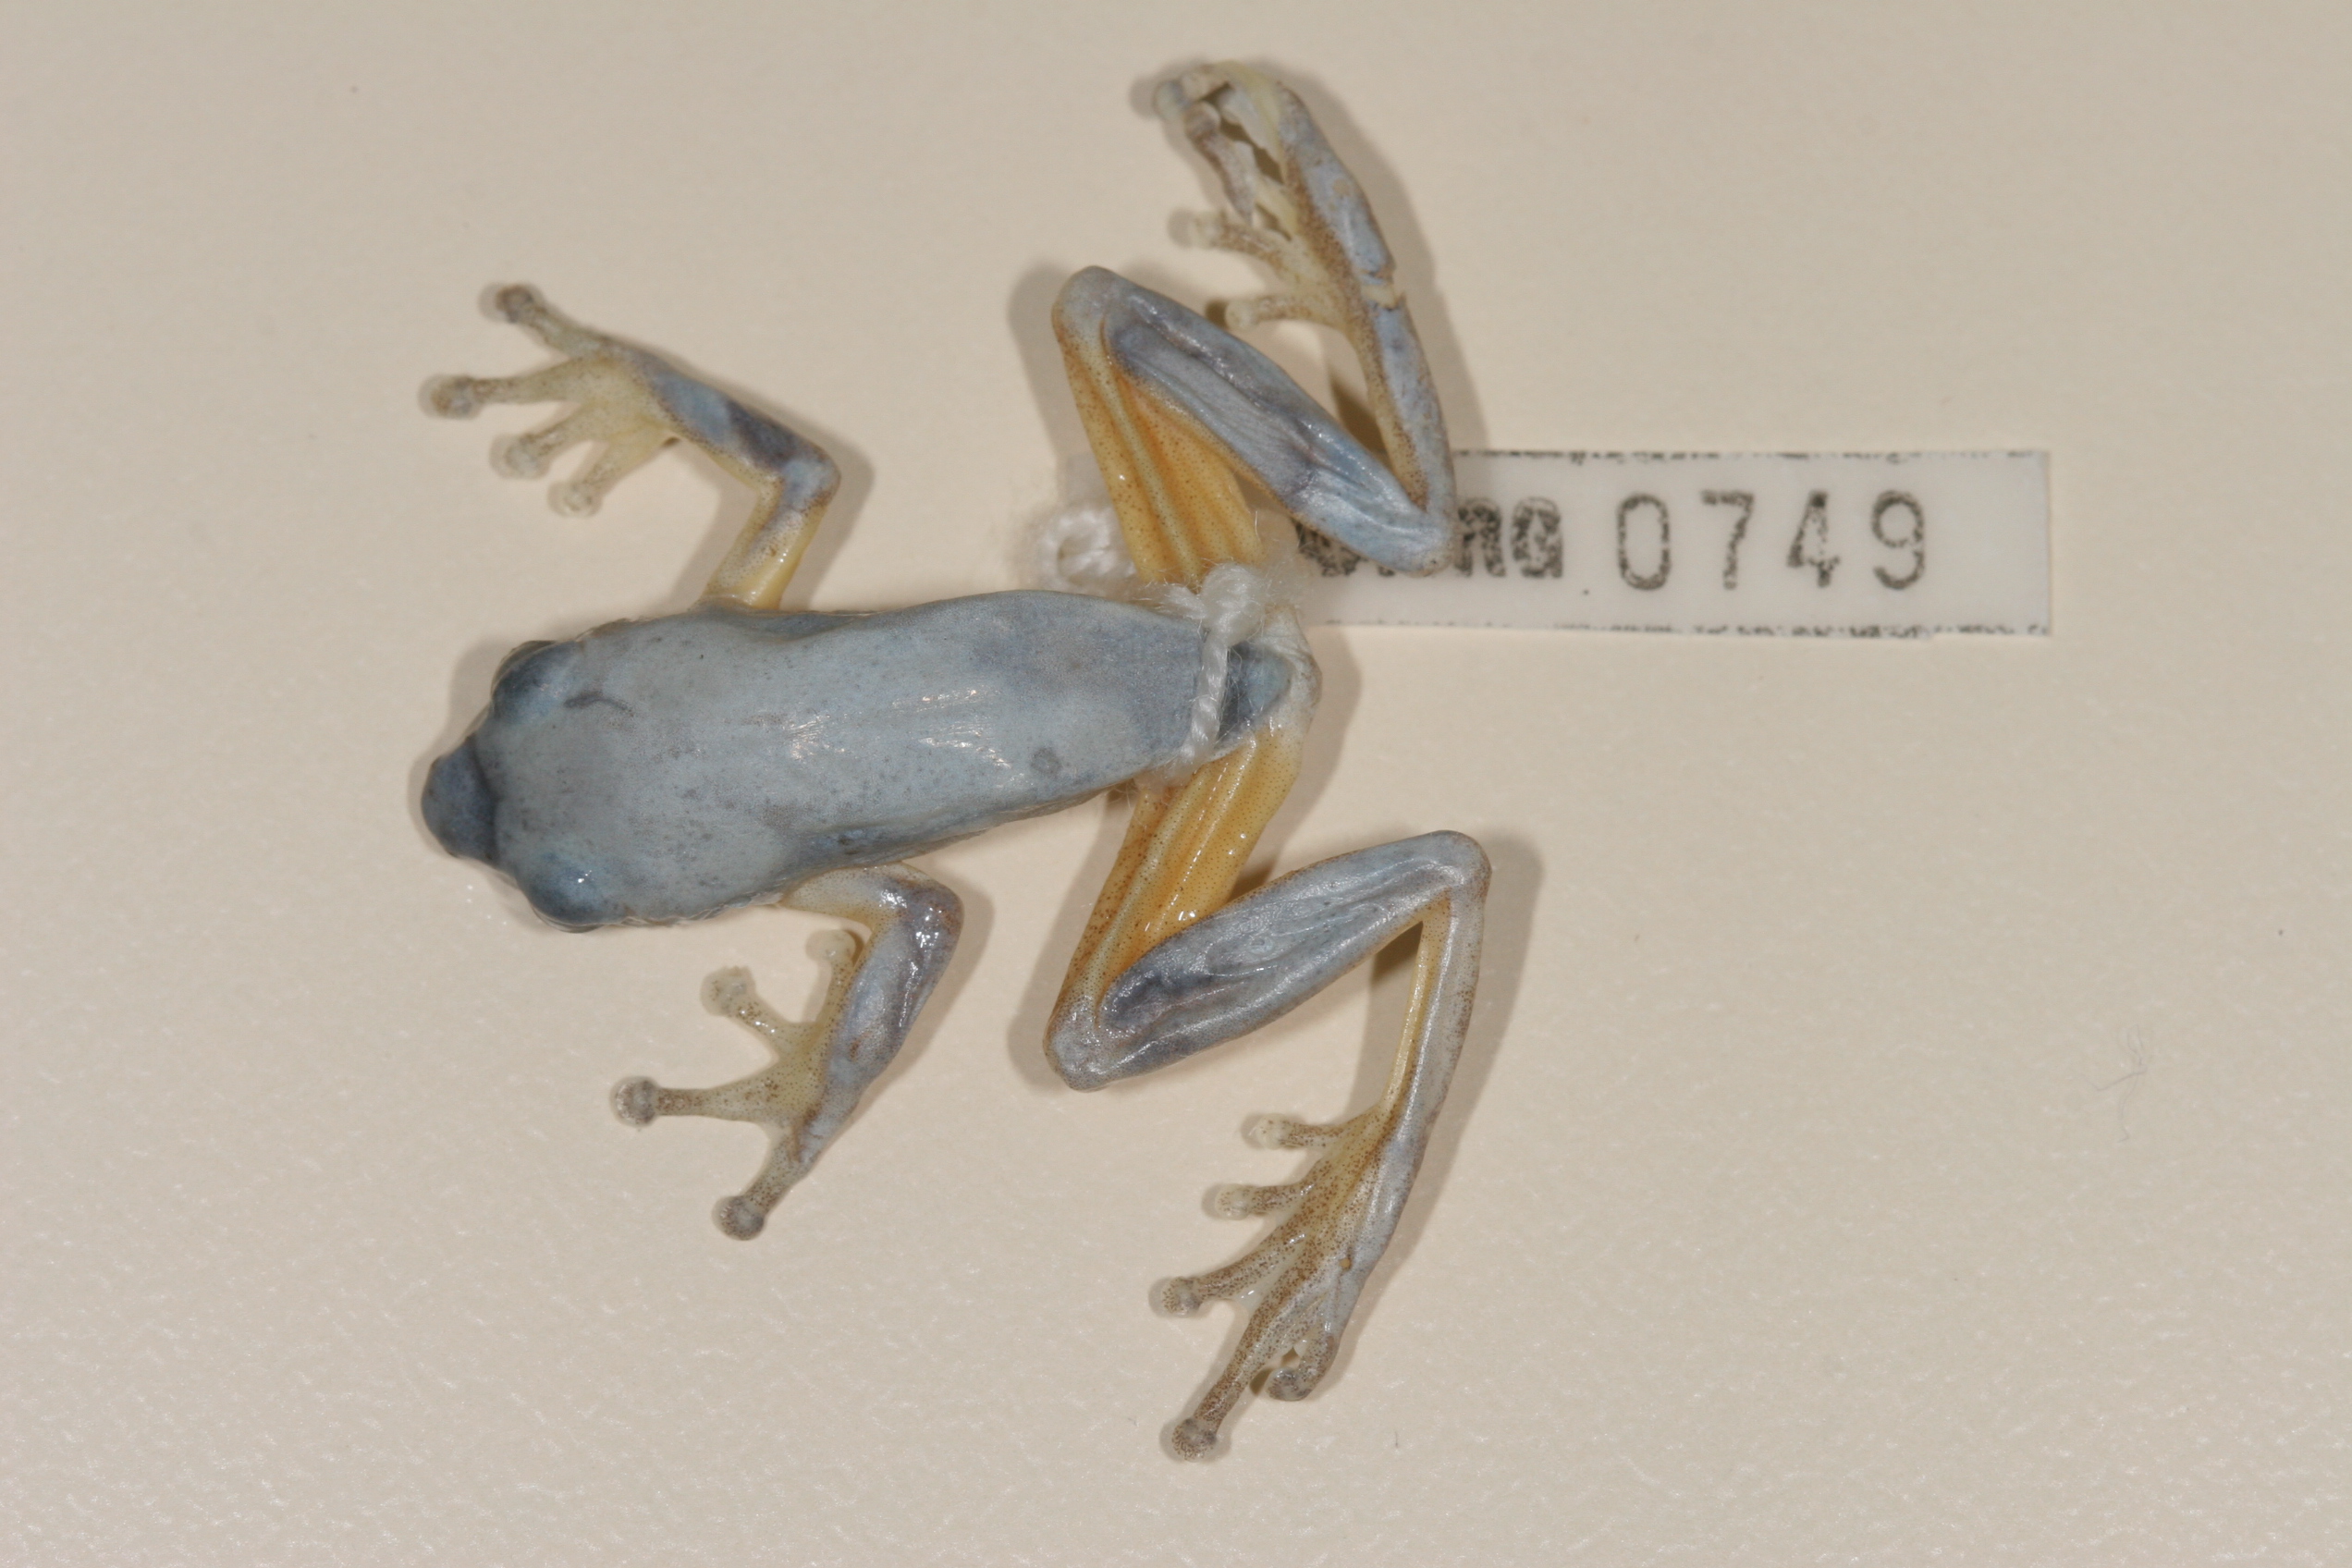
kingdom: Animalia
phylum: Chordata
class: Amphibia
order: Anura
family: Hyperoliidae
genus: Hyperolius
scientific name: Hyperolius tuberilinguis
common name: Tinker reed frog
